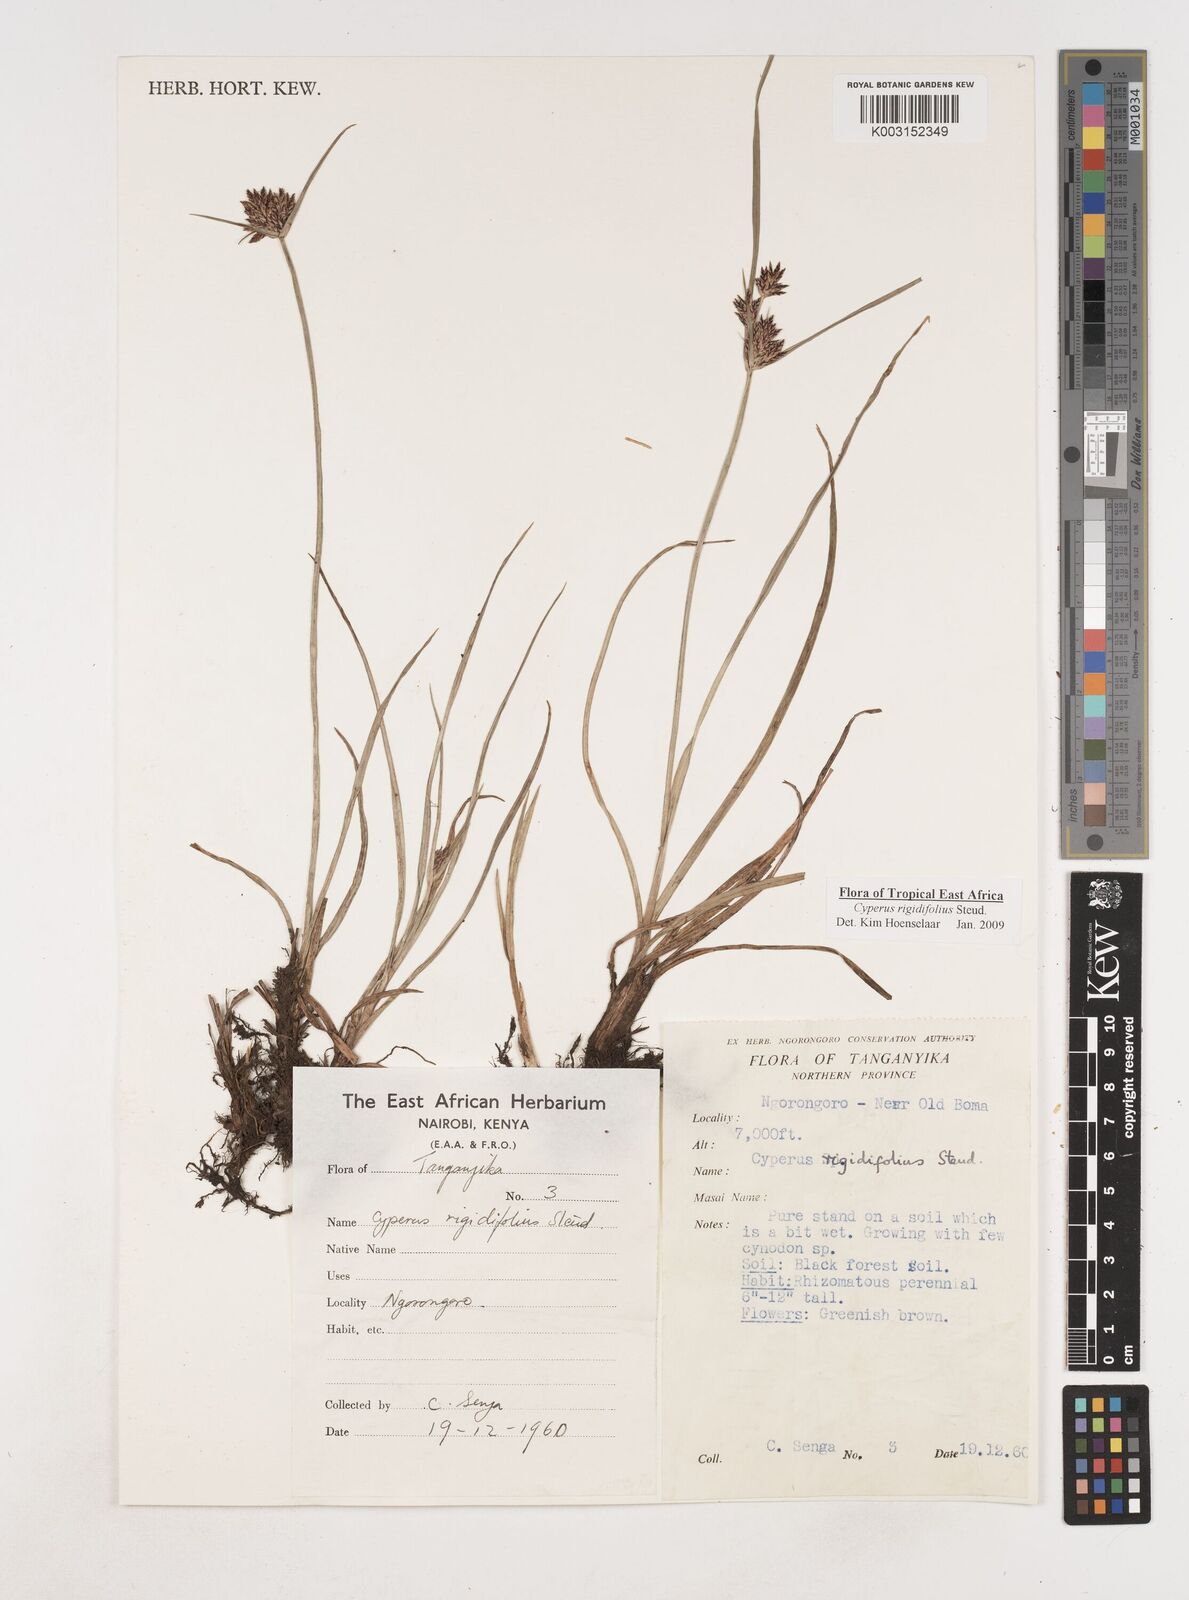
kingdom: Plantae
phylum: Tracheophyta
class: Liliopsida
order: Poales
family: Cyperaceae
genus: Cyperus
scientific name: Cyperus rigidifolius
